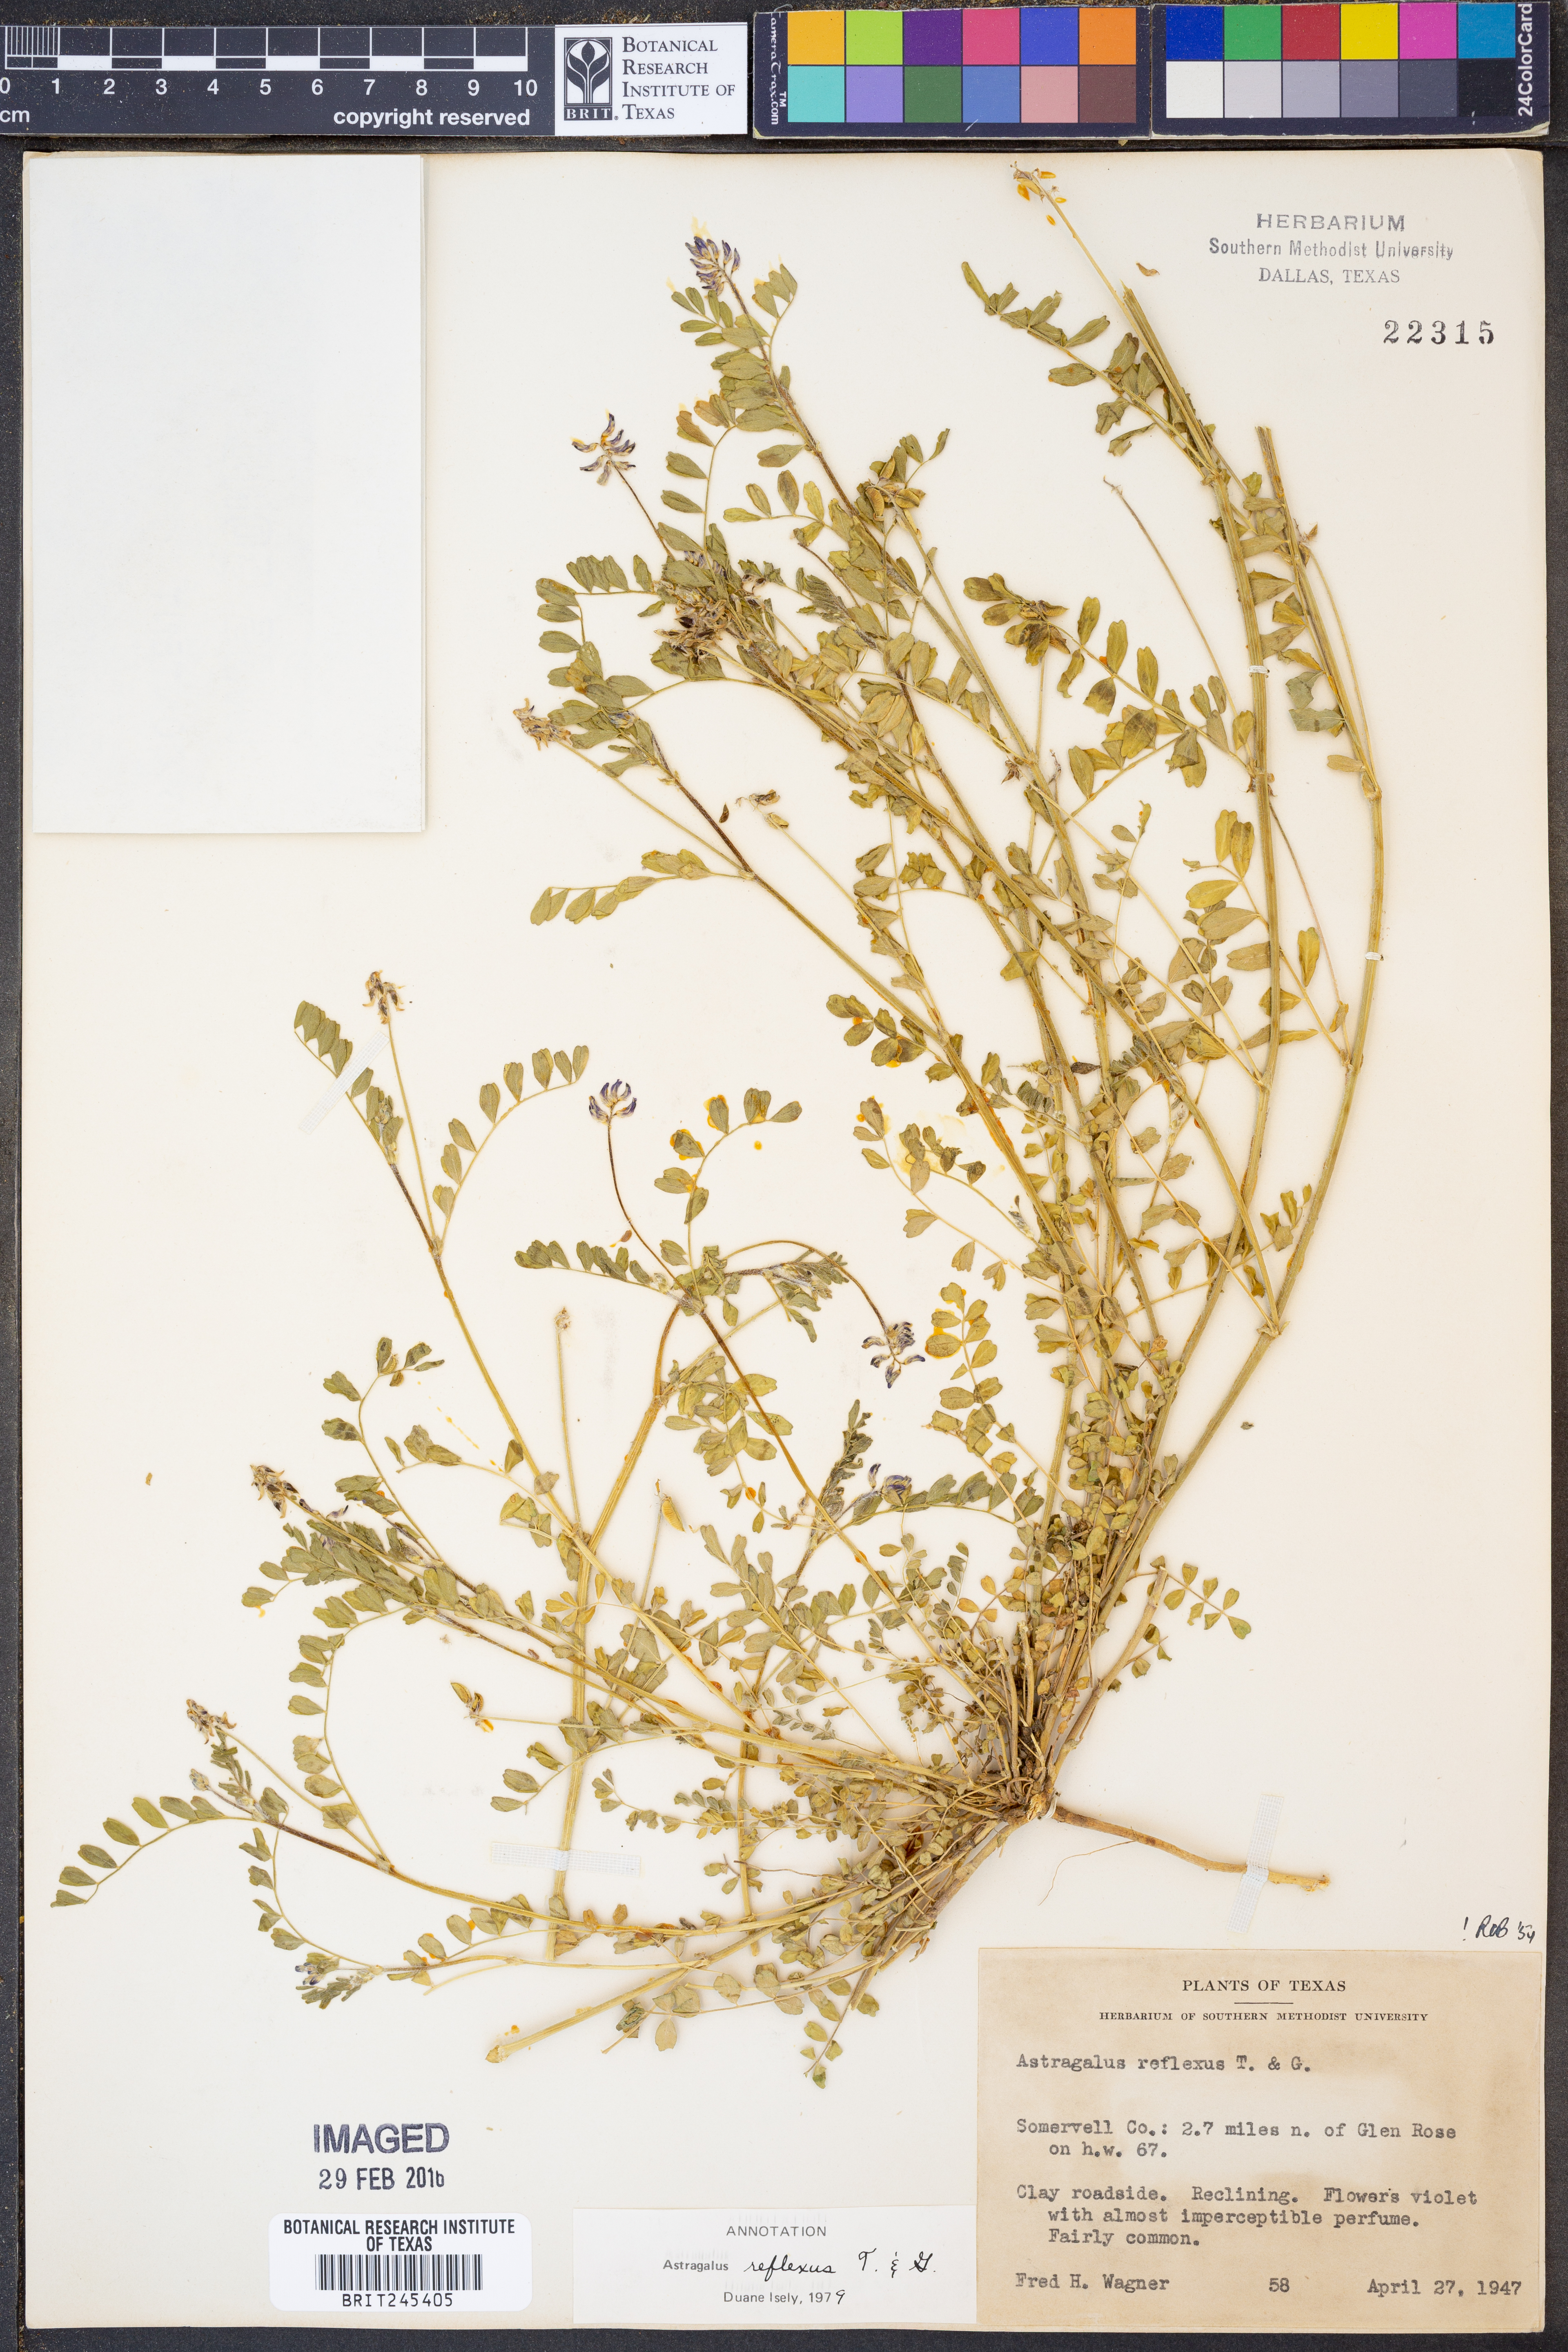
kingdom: Plantae
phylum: Tracheophyta
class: Magnoliopsida
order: Fabales
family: Fabaceae
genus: Astragalus
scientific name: Astragalus reflexus
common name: Texas milk-vetch
